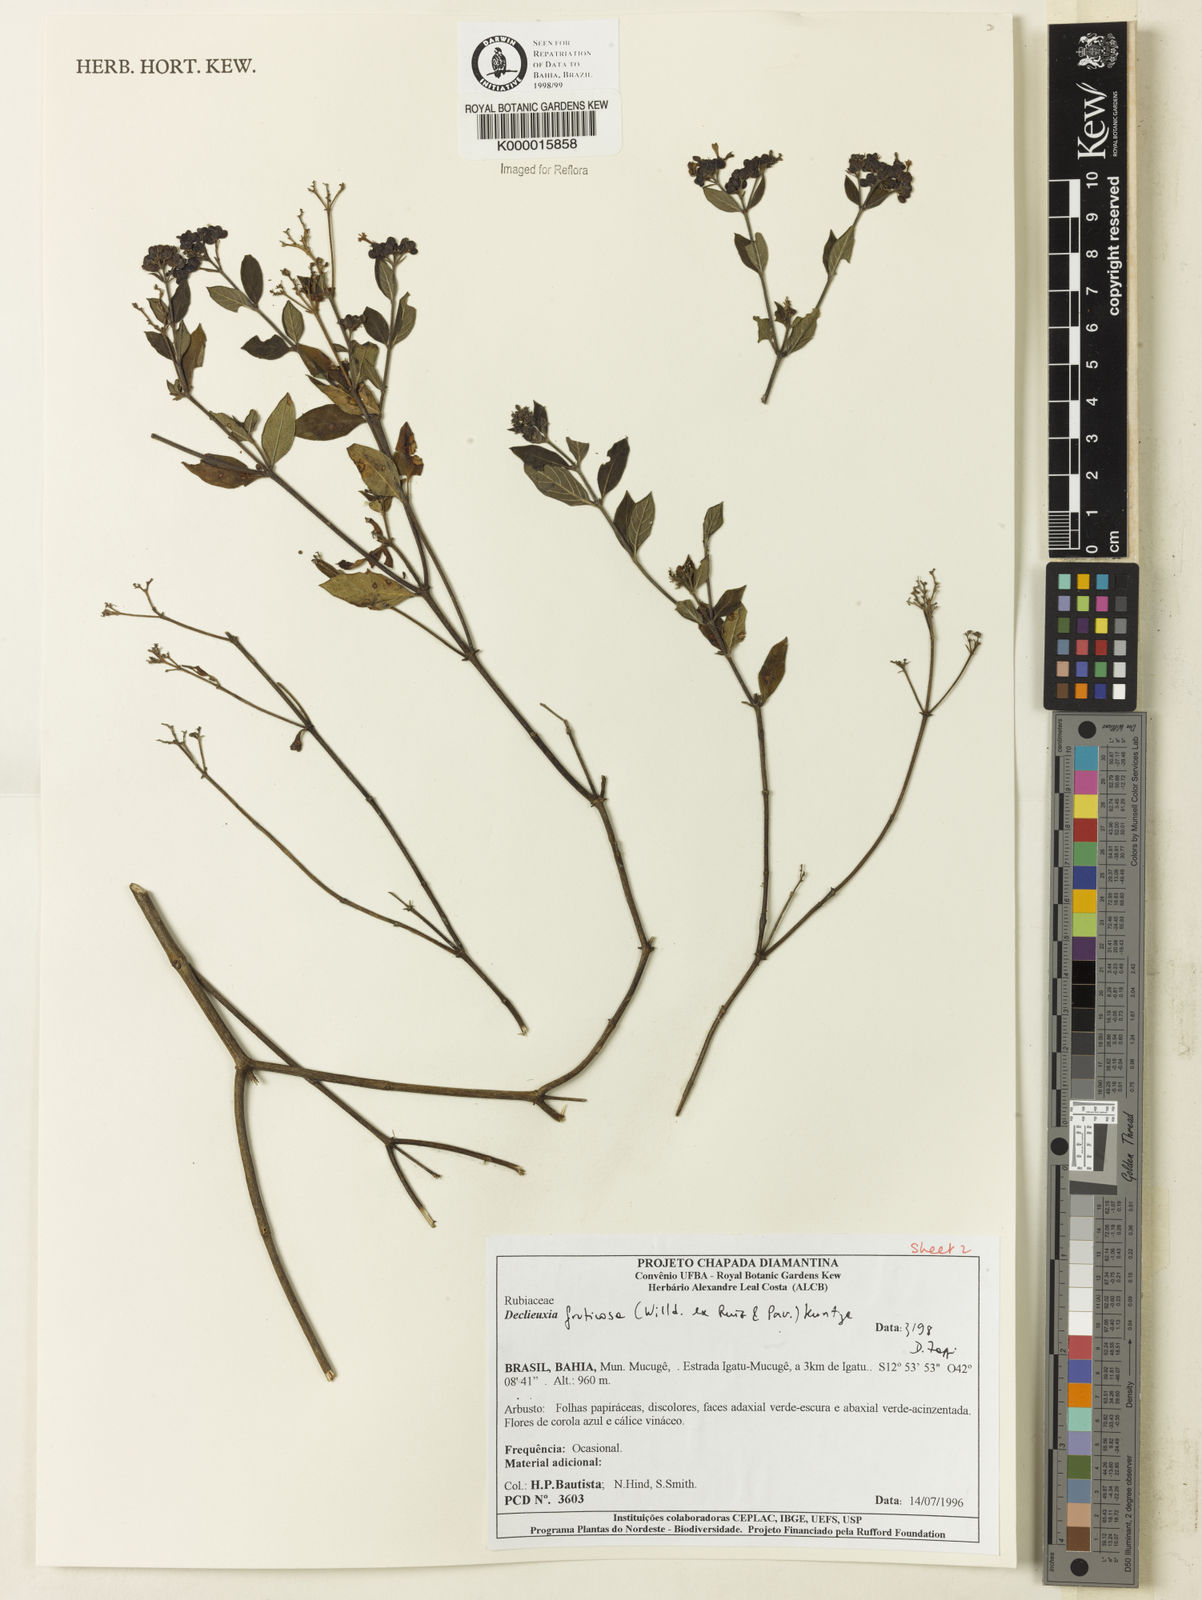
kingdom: Plantae
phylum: Tracheophyta
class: Magnoliopsida
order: Gentianales
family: Rubiaceae
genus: Declieuxia
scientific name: Declieuxia fruticosa
